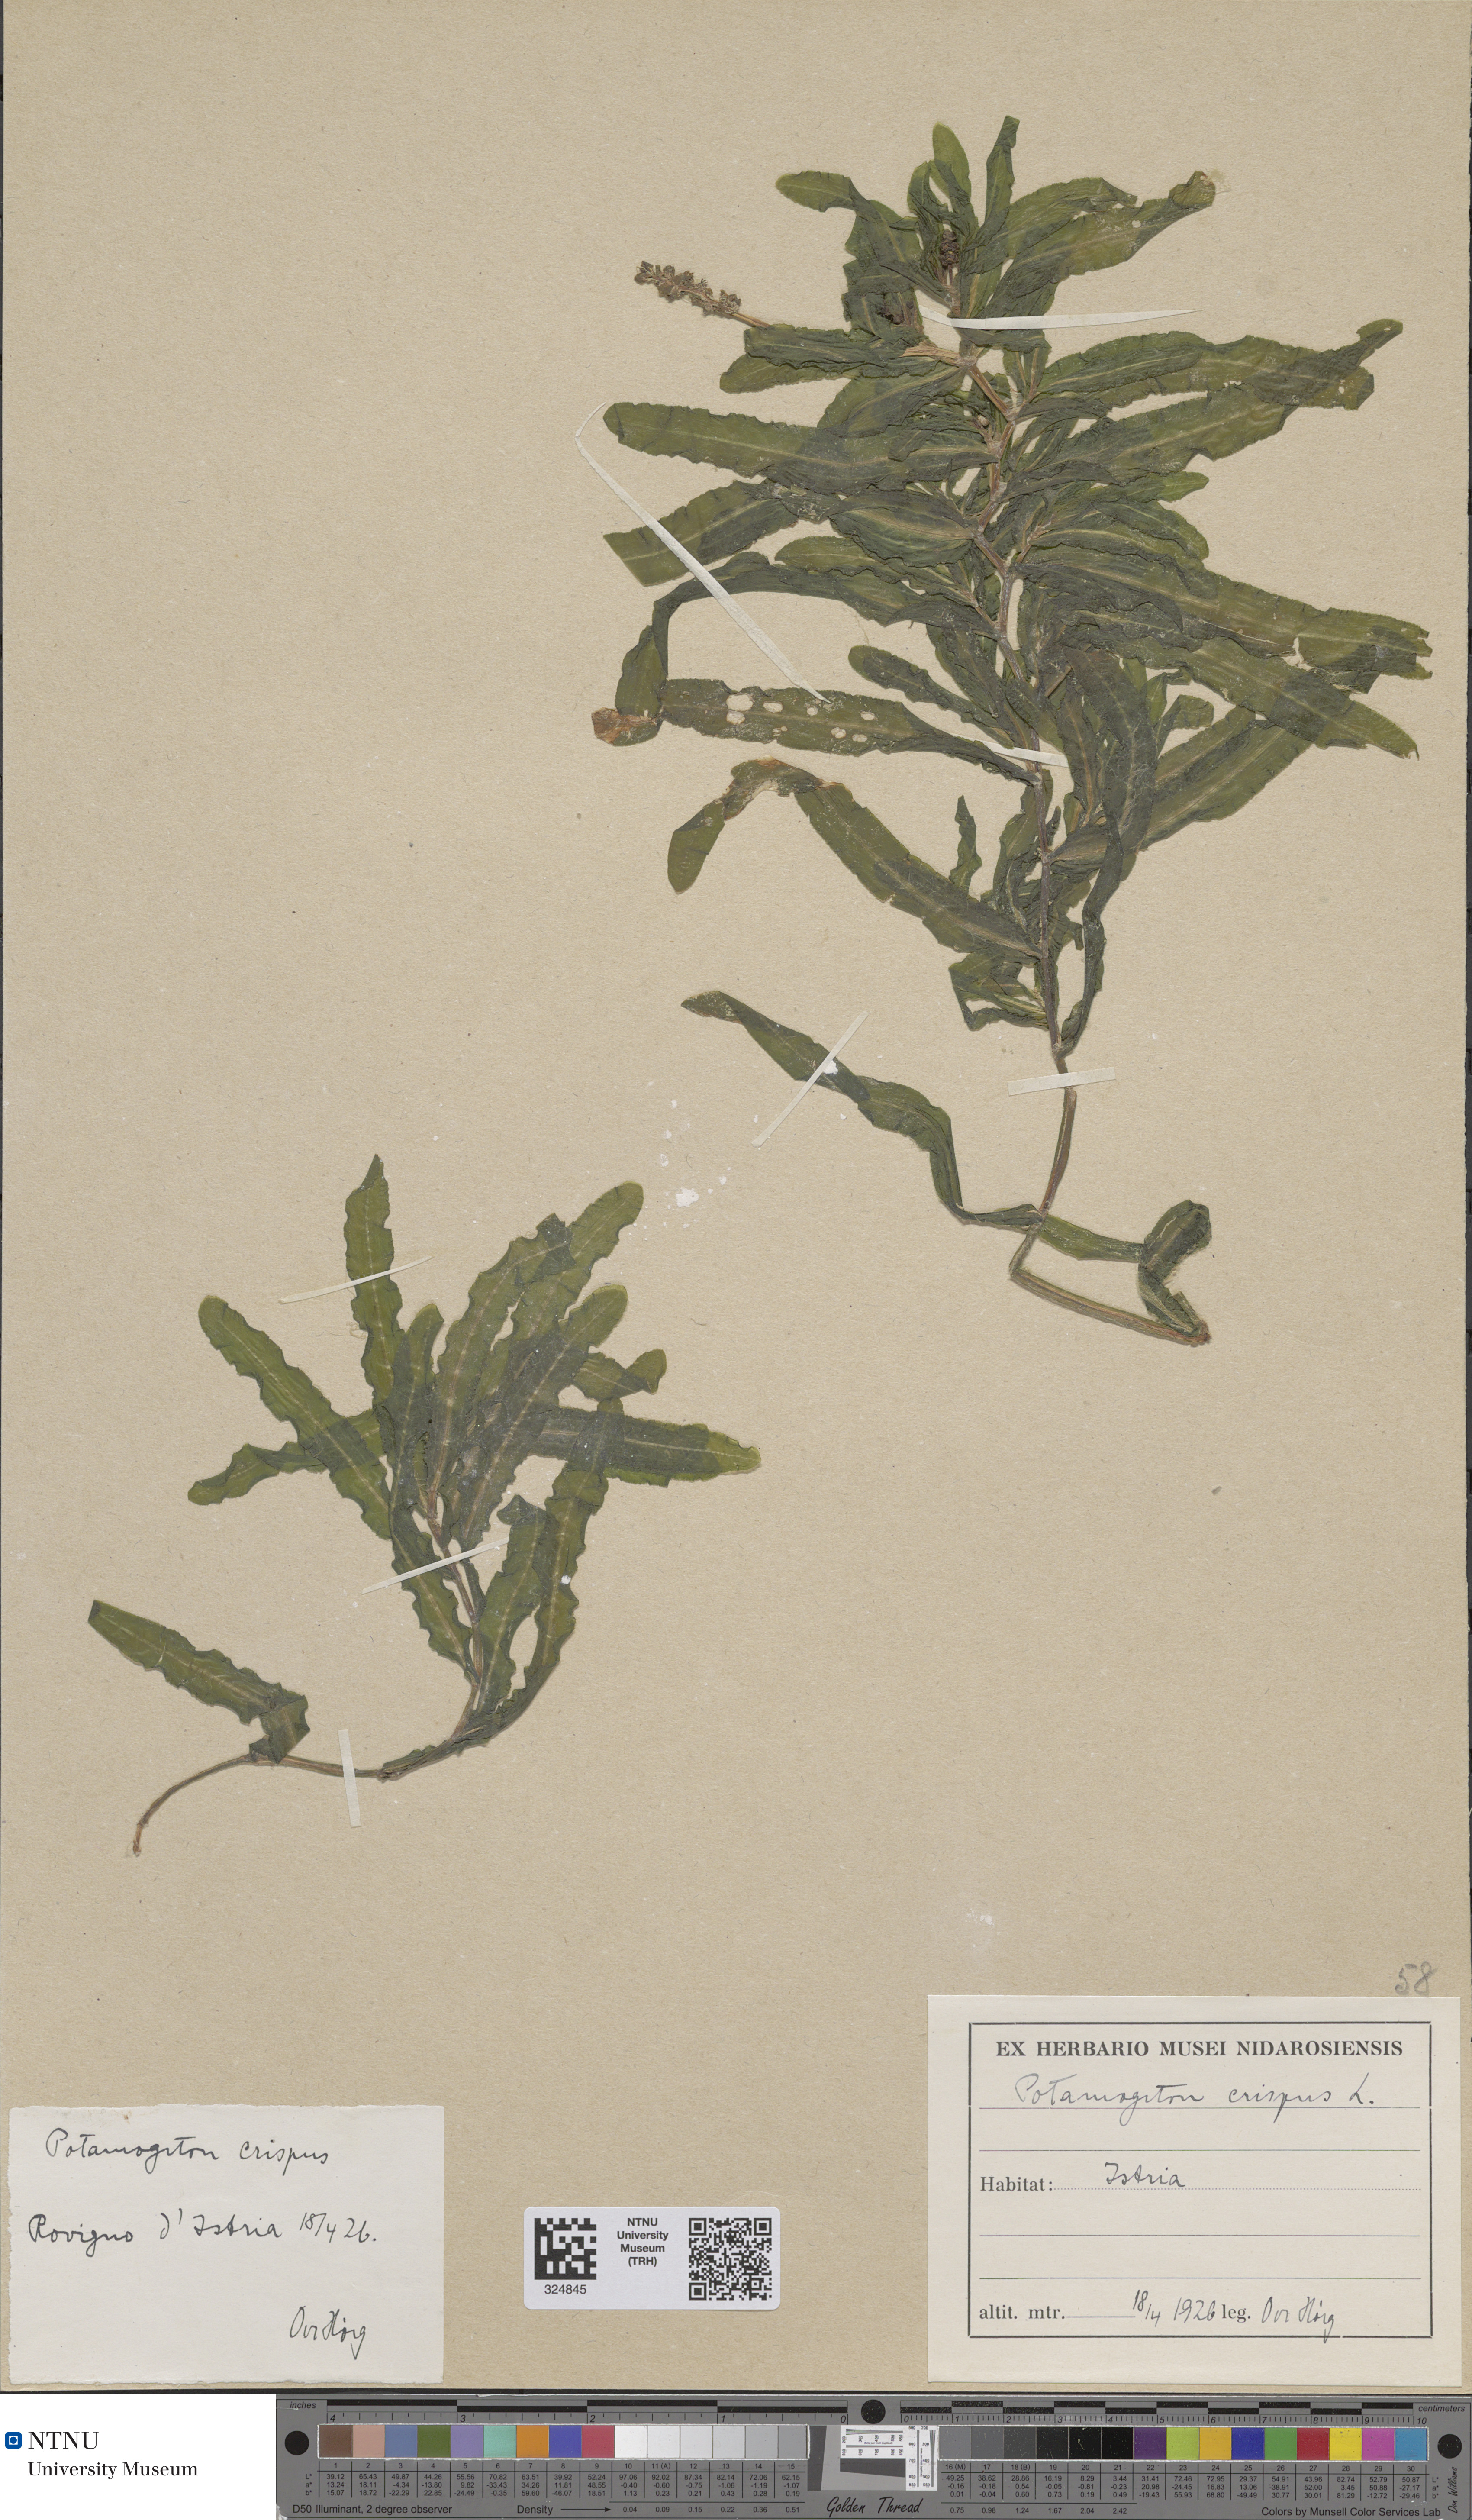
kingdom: Plantae
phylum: Tracheophyta
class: Liliopsida
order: Alismatales
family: Potamogetonaceae
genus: Potamogeton
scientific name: Potamogeton crispus
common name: Curled pondweed
